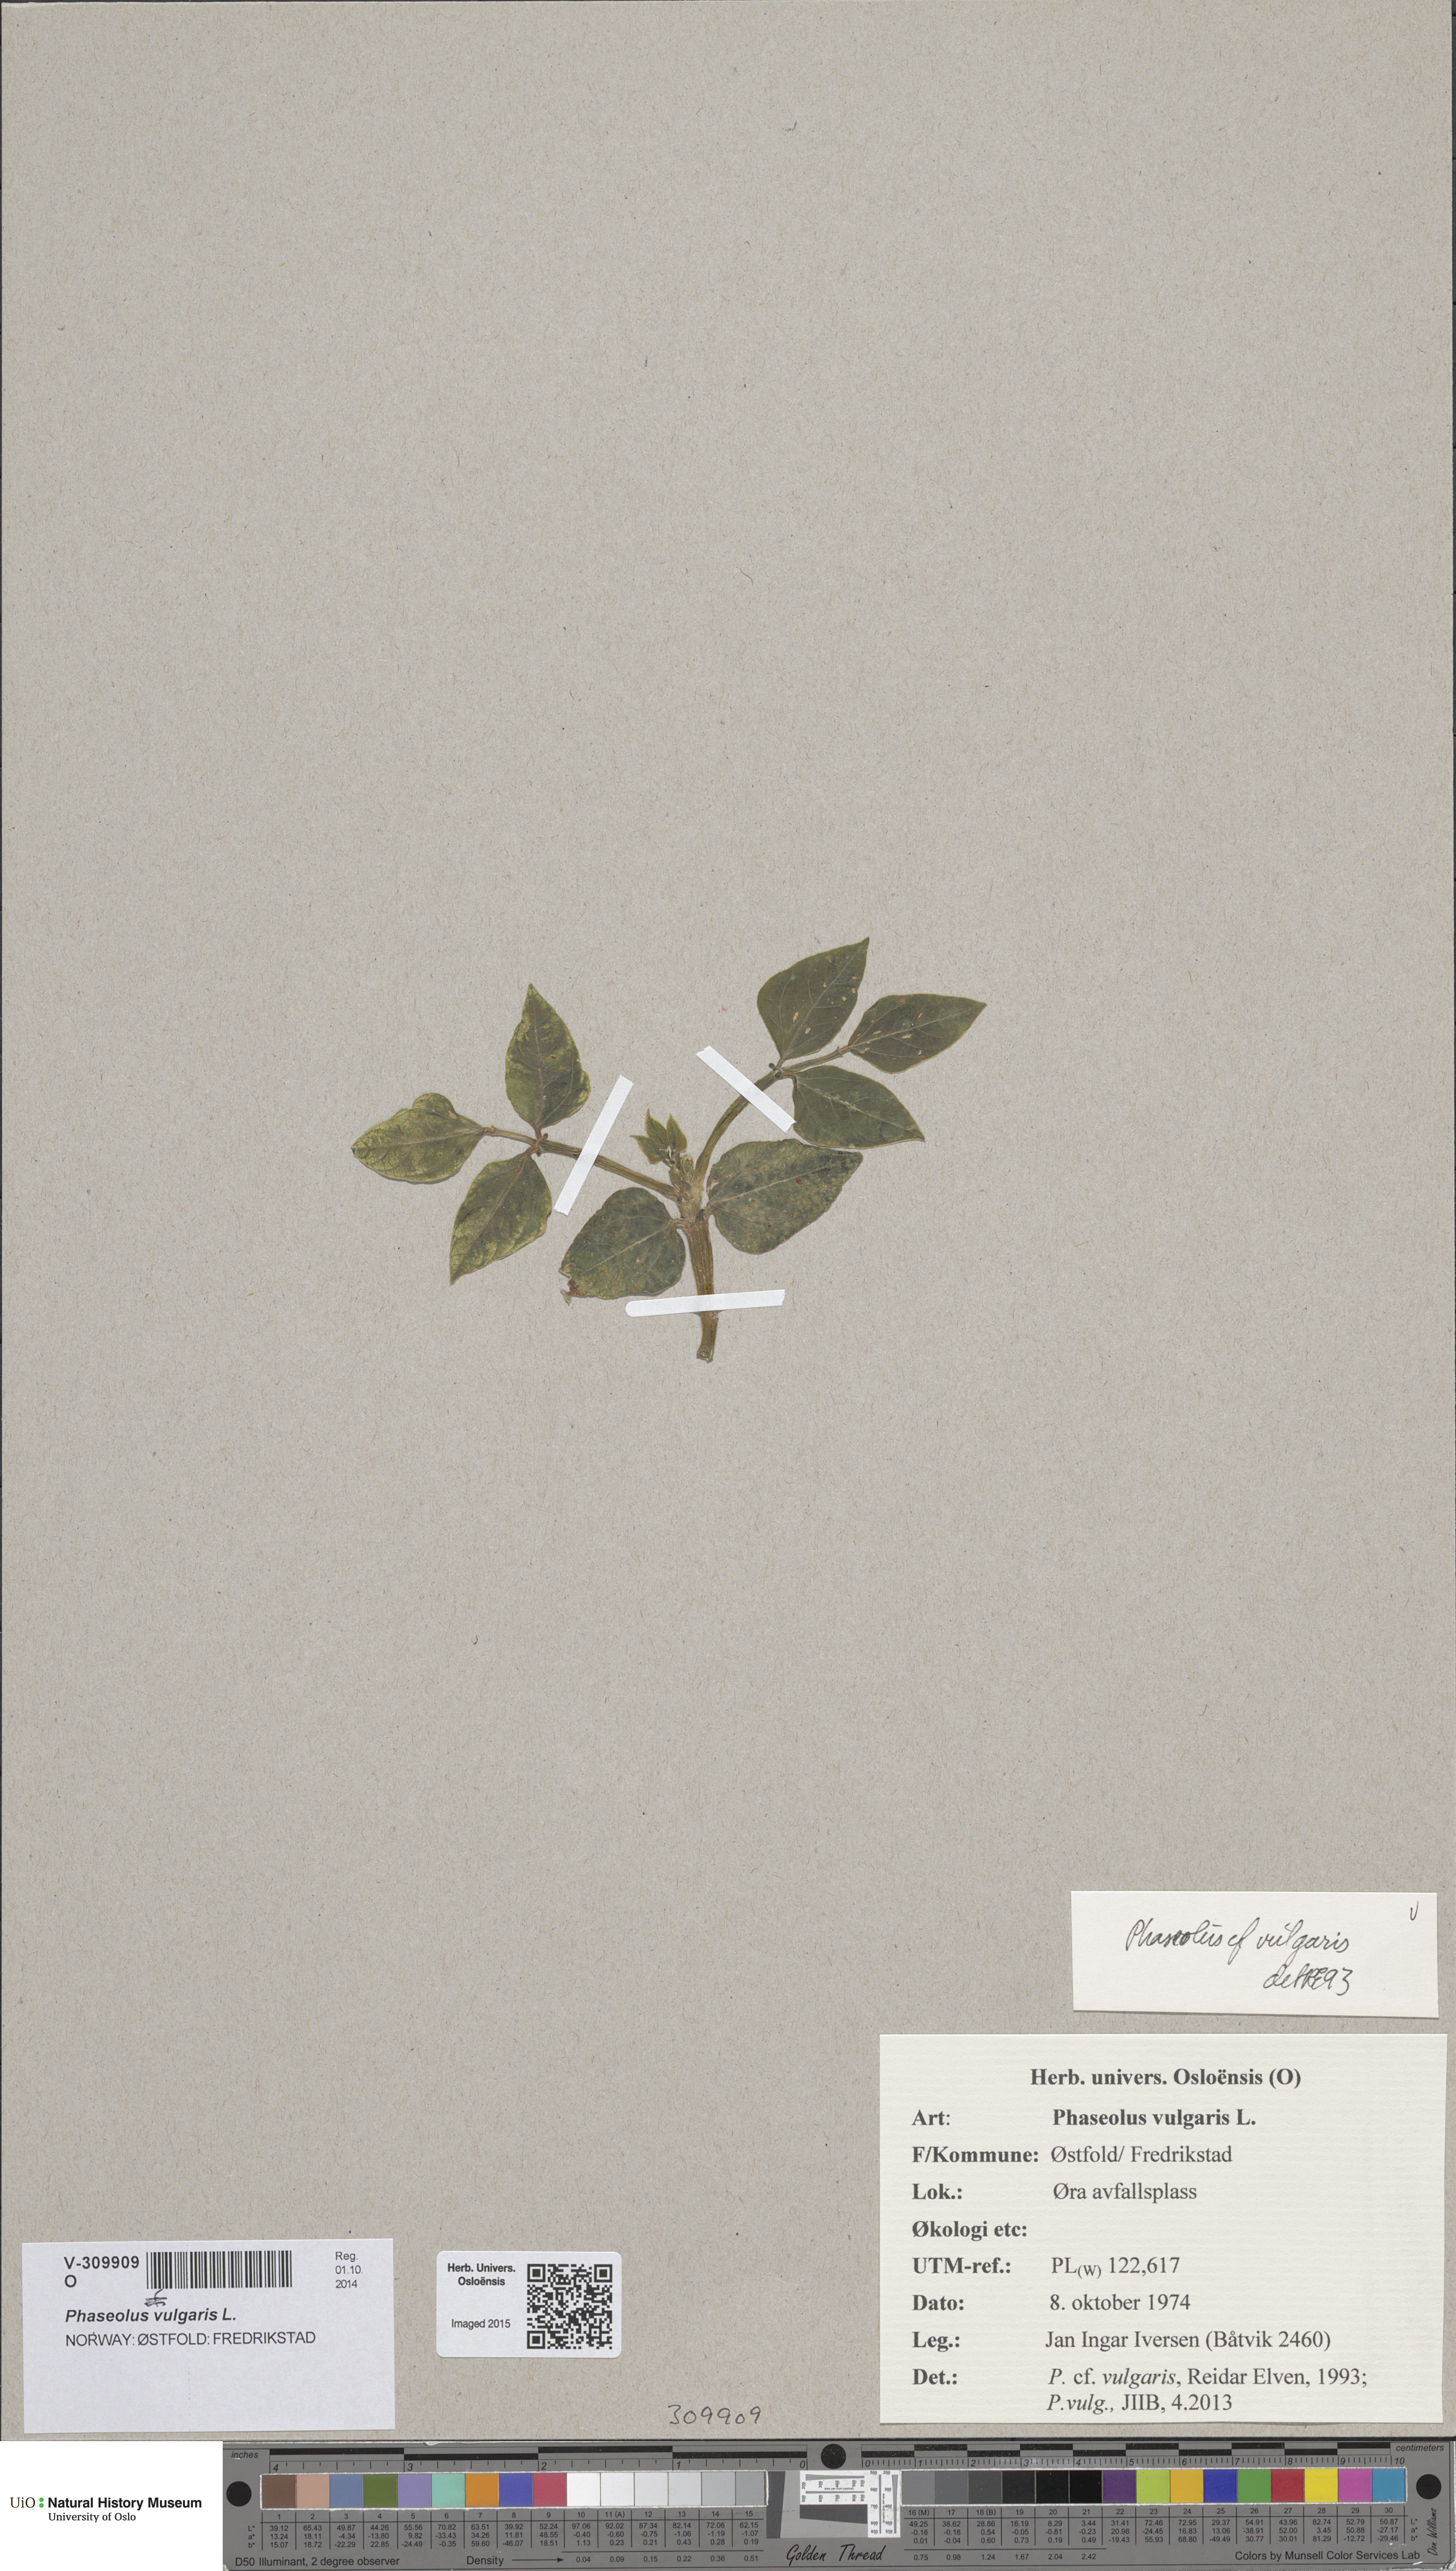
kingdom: Plantae
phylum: Tracheophyta
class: Magnoliopsida
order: Fabales
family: Fabaceae
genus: Phaseolus
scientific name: Phaseolus vulgaris
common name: Bean
